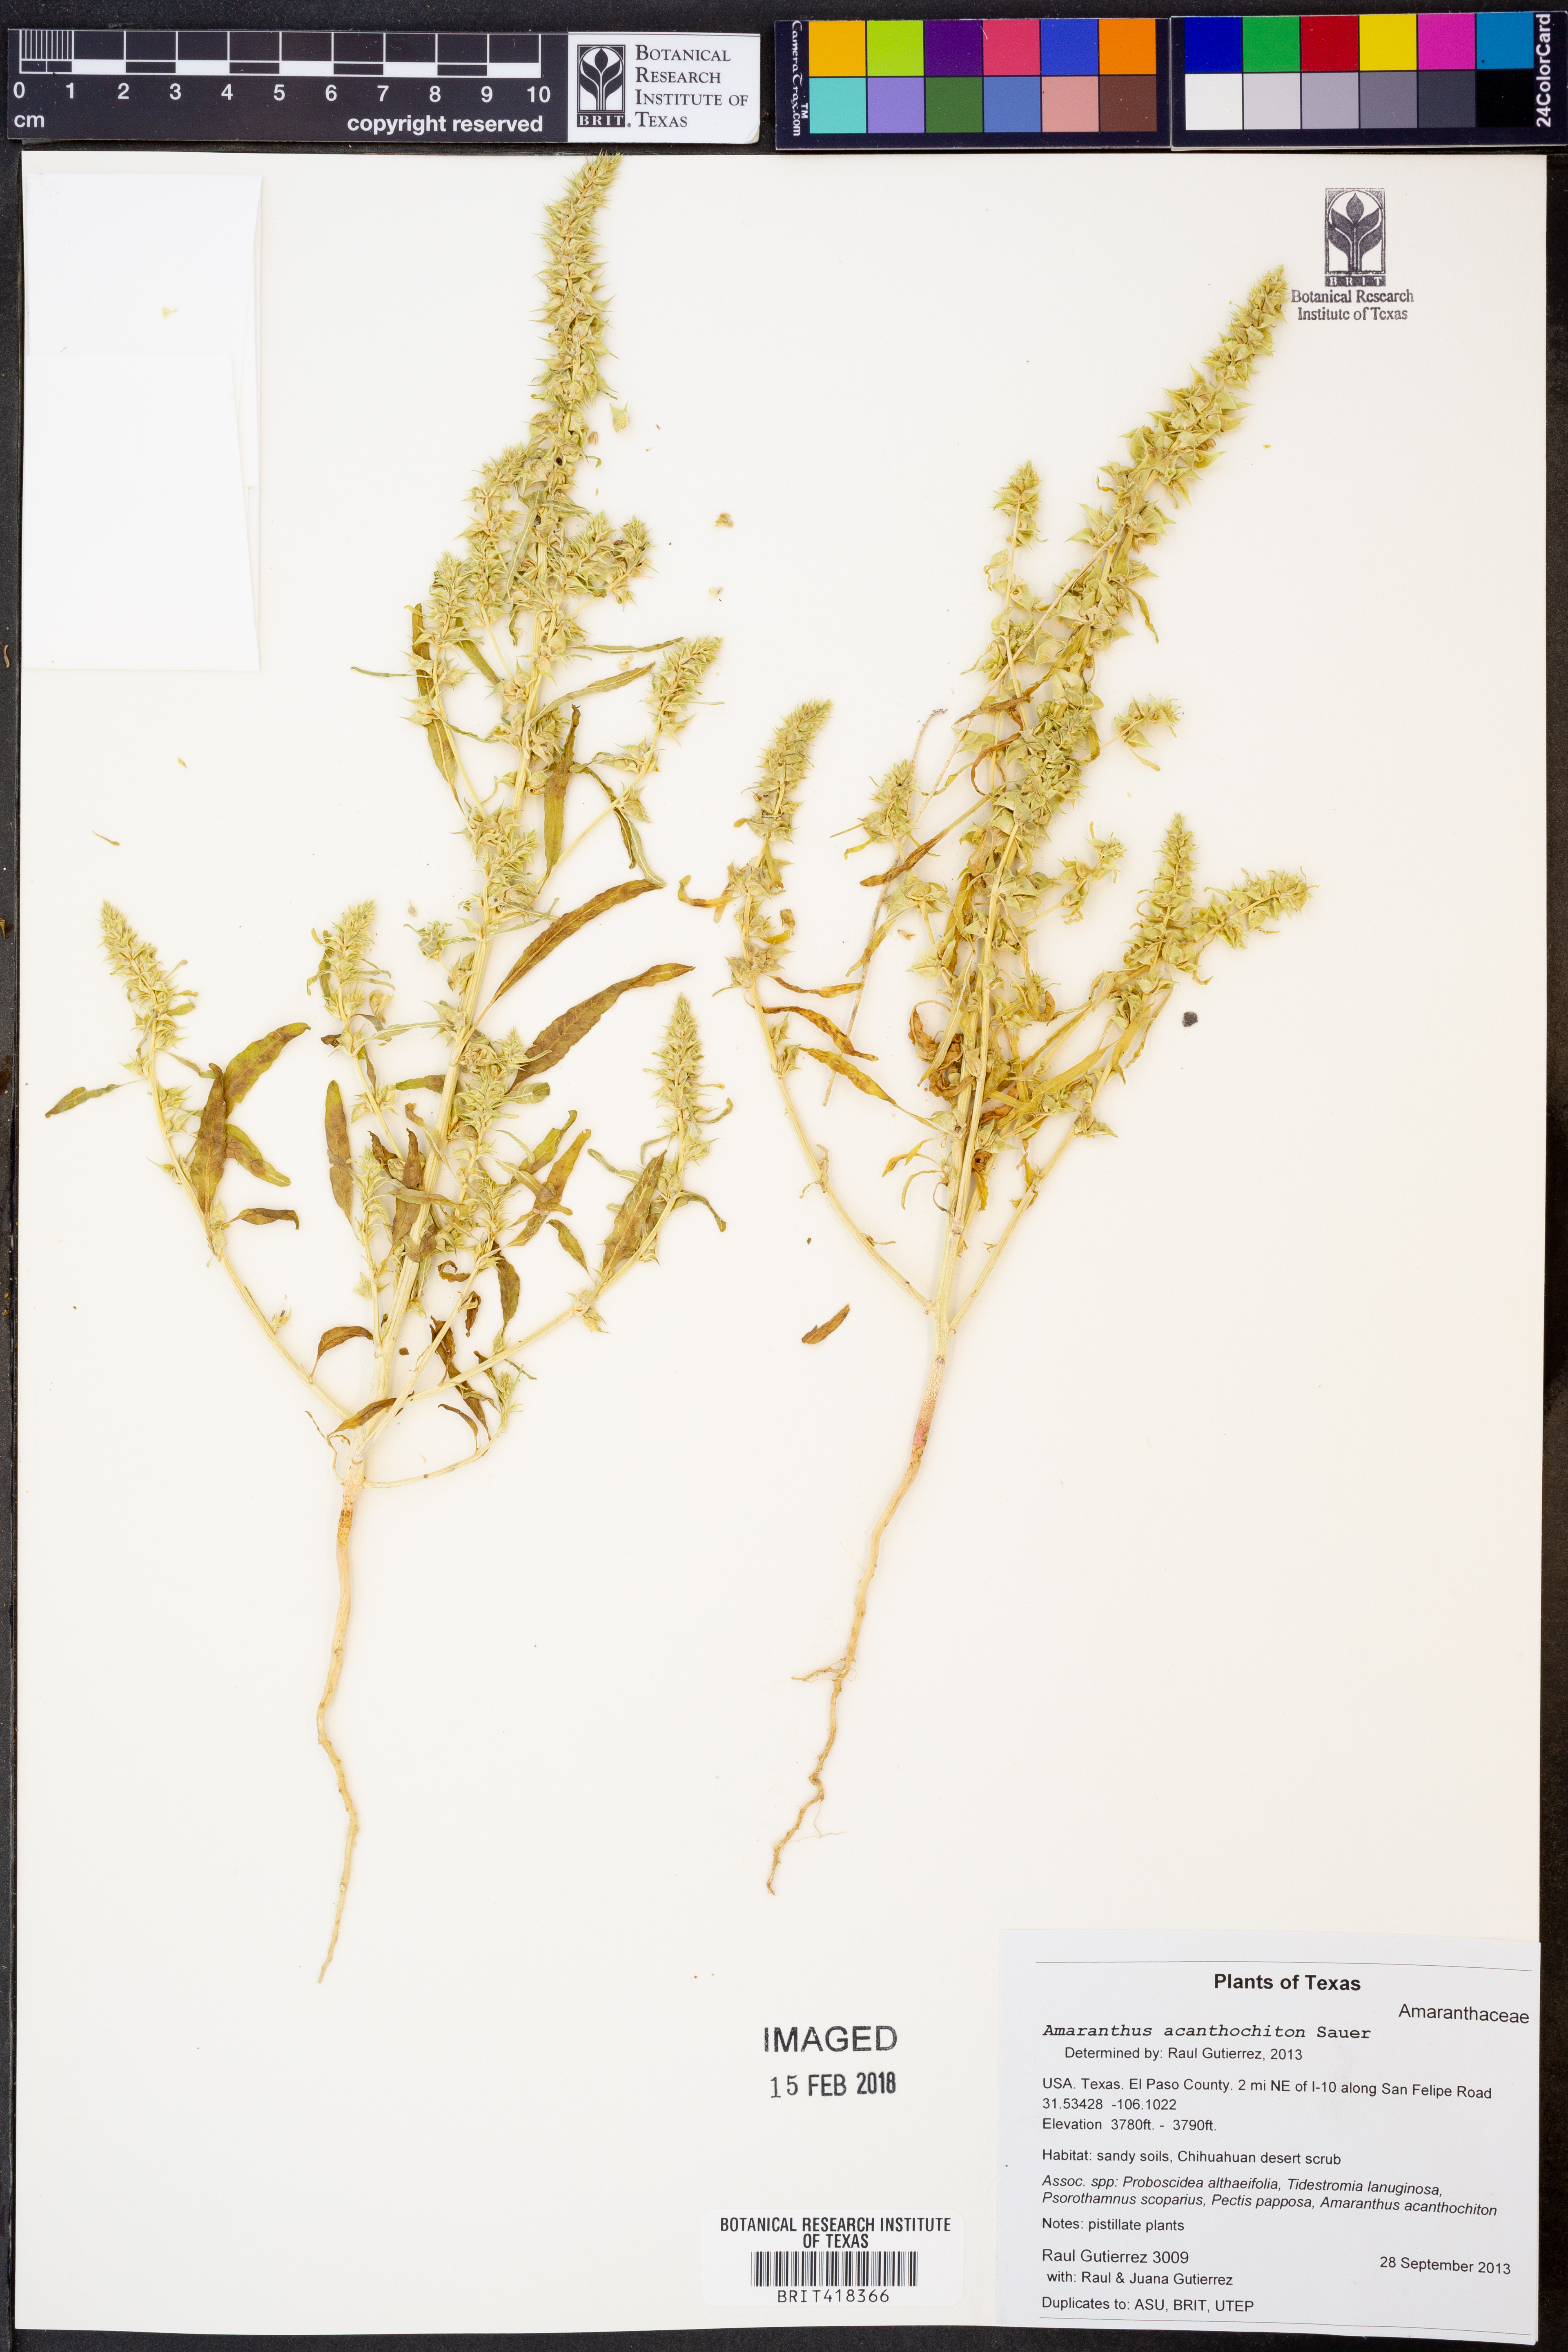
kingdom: Plantae
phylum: Tracheophyta
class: Magnoliopsida
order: Caryophyllales
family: Amaranthaceae
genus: Amaranthus
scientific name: Amaranthus acanthochiton
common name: Greenstripe
